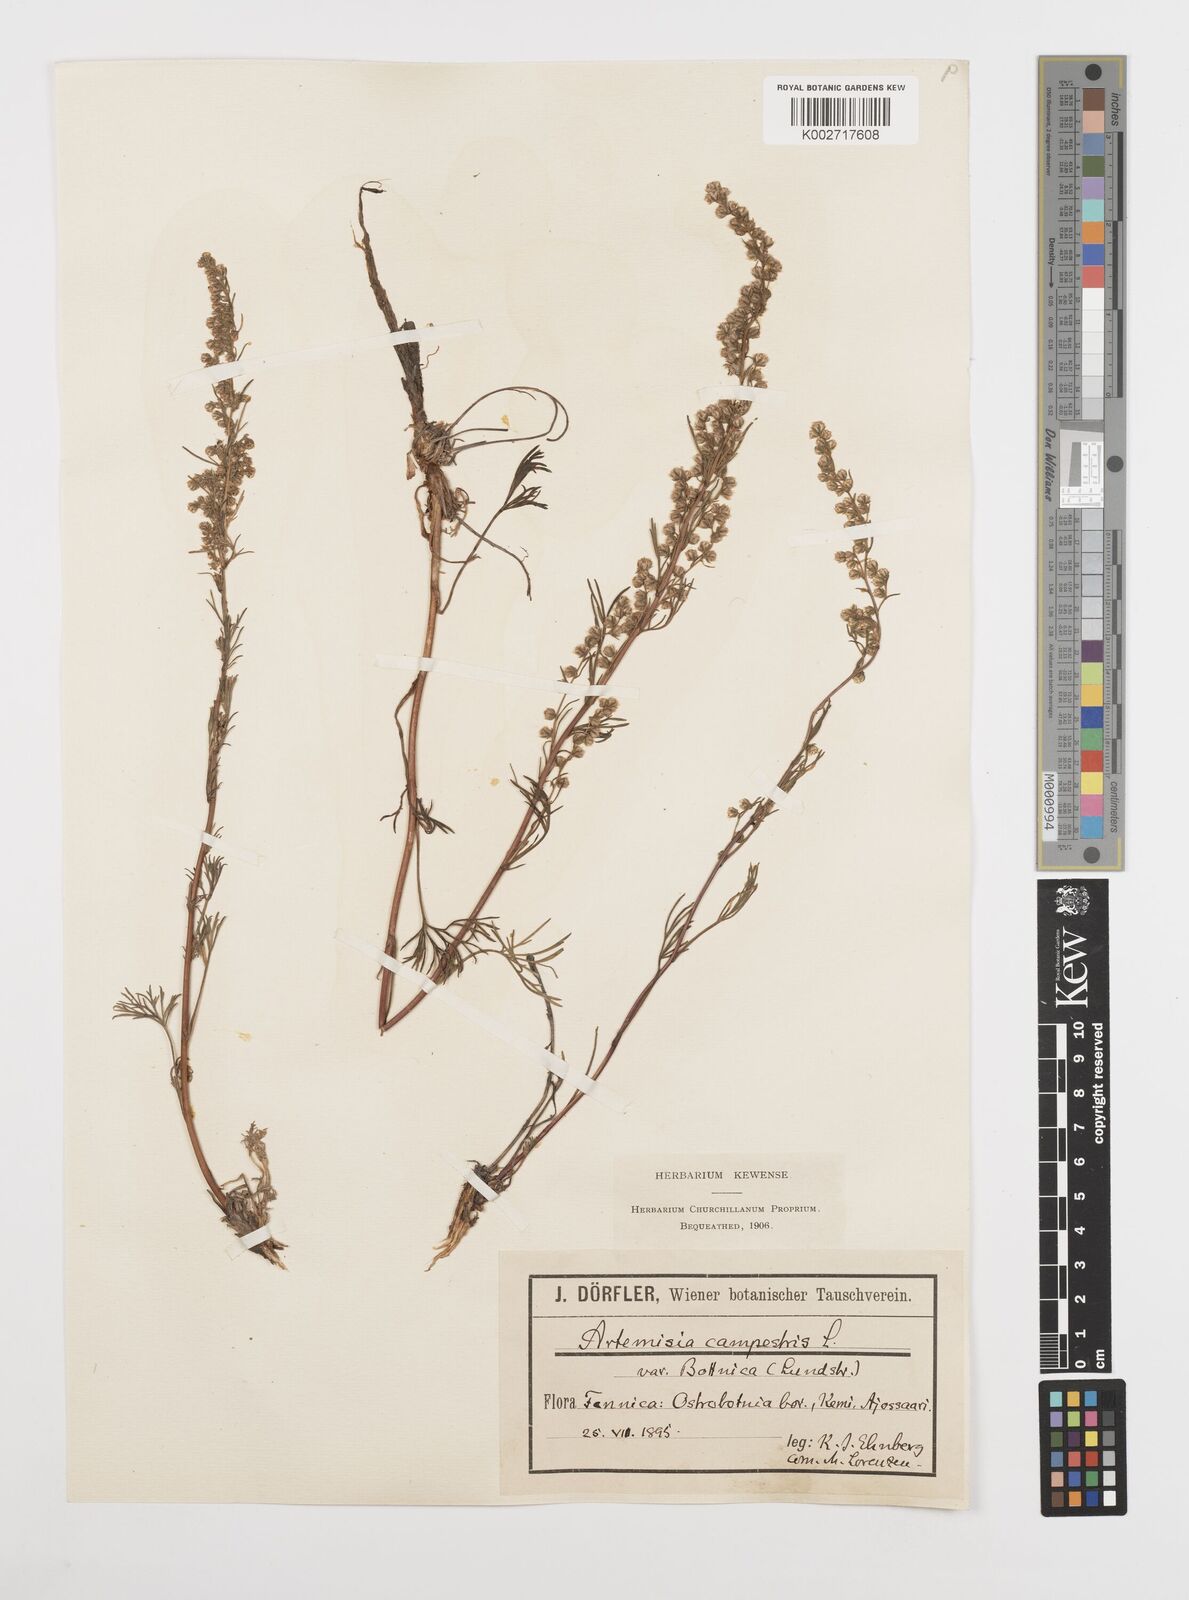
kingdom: Plantae
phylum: Tracheophyta
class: Magnoliopsida
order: Asterales
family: Asteraceae
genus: Artemisia
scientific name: Artemisia campestris
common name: Field wormwood
